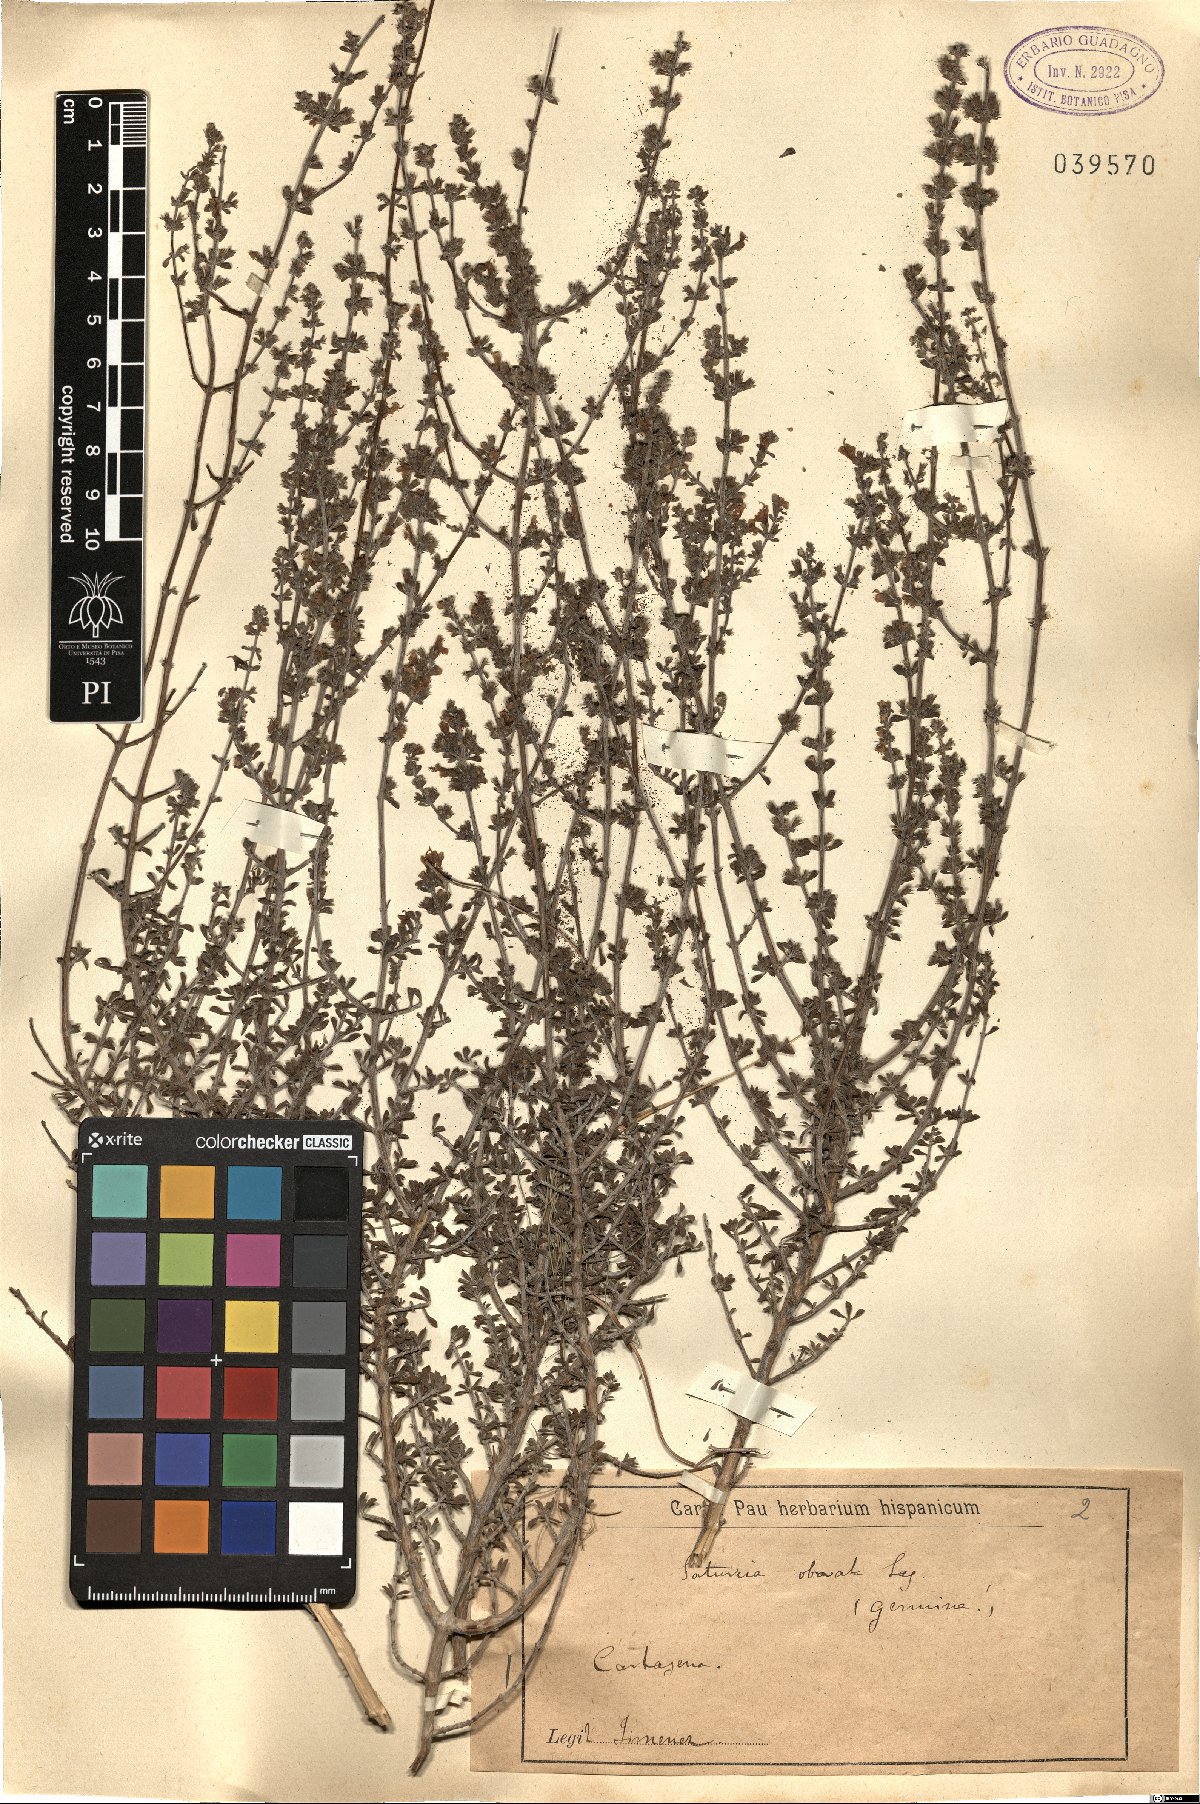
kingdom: Plantae
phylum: Tracheophyta
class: Magnoliopsida
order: Lamiales
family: Lamiaceae
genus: Satureja
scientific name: Satureja cuneifolia
